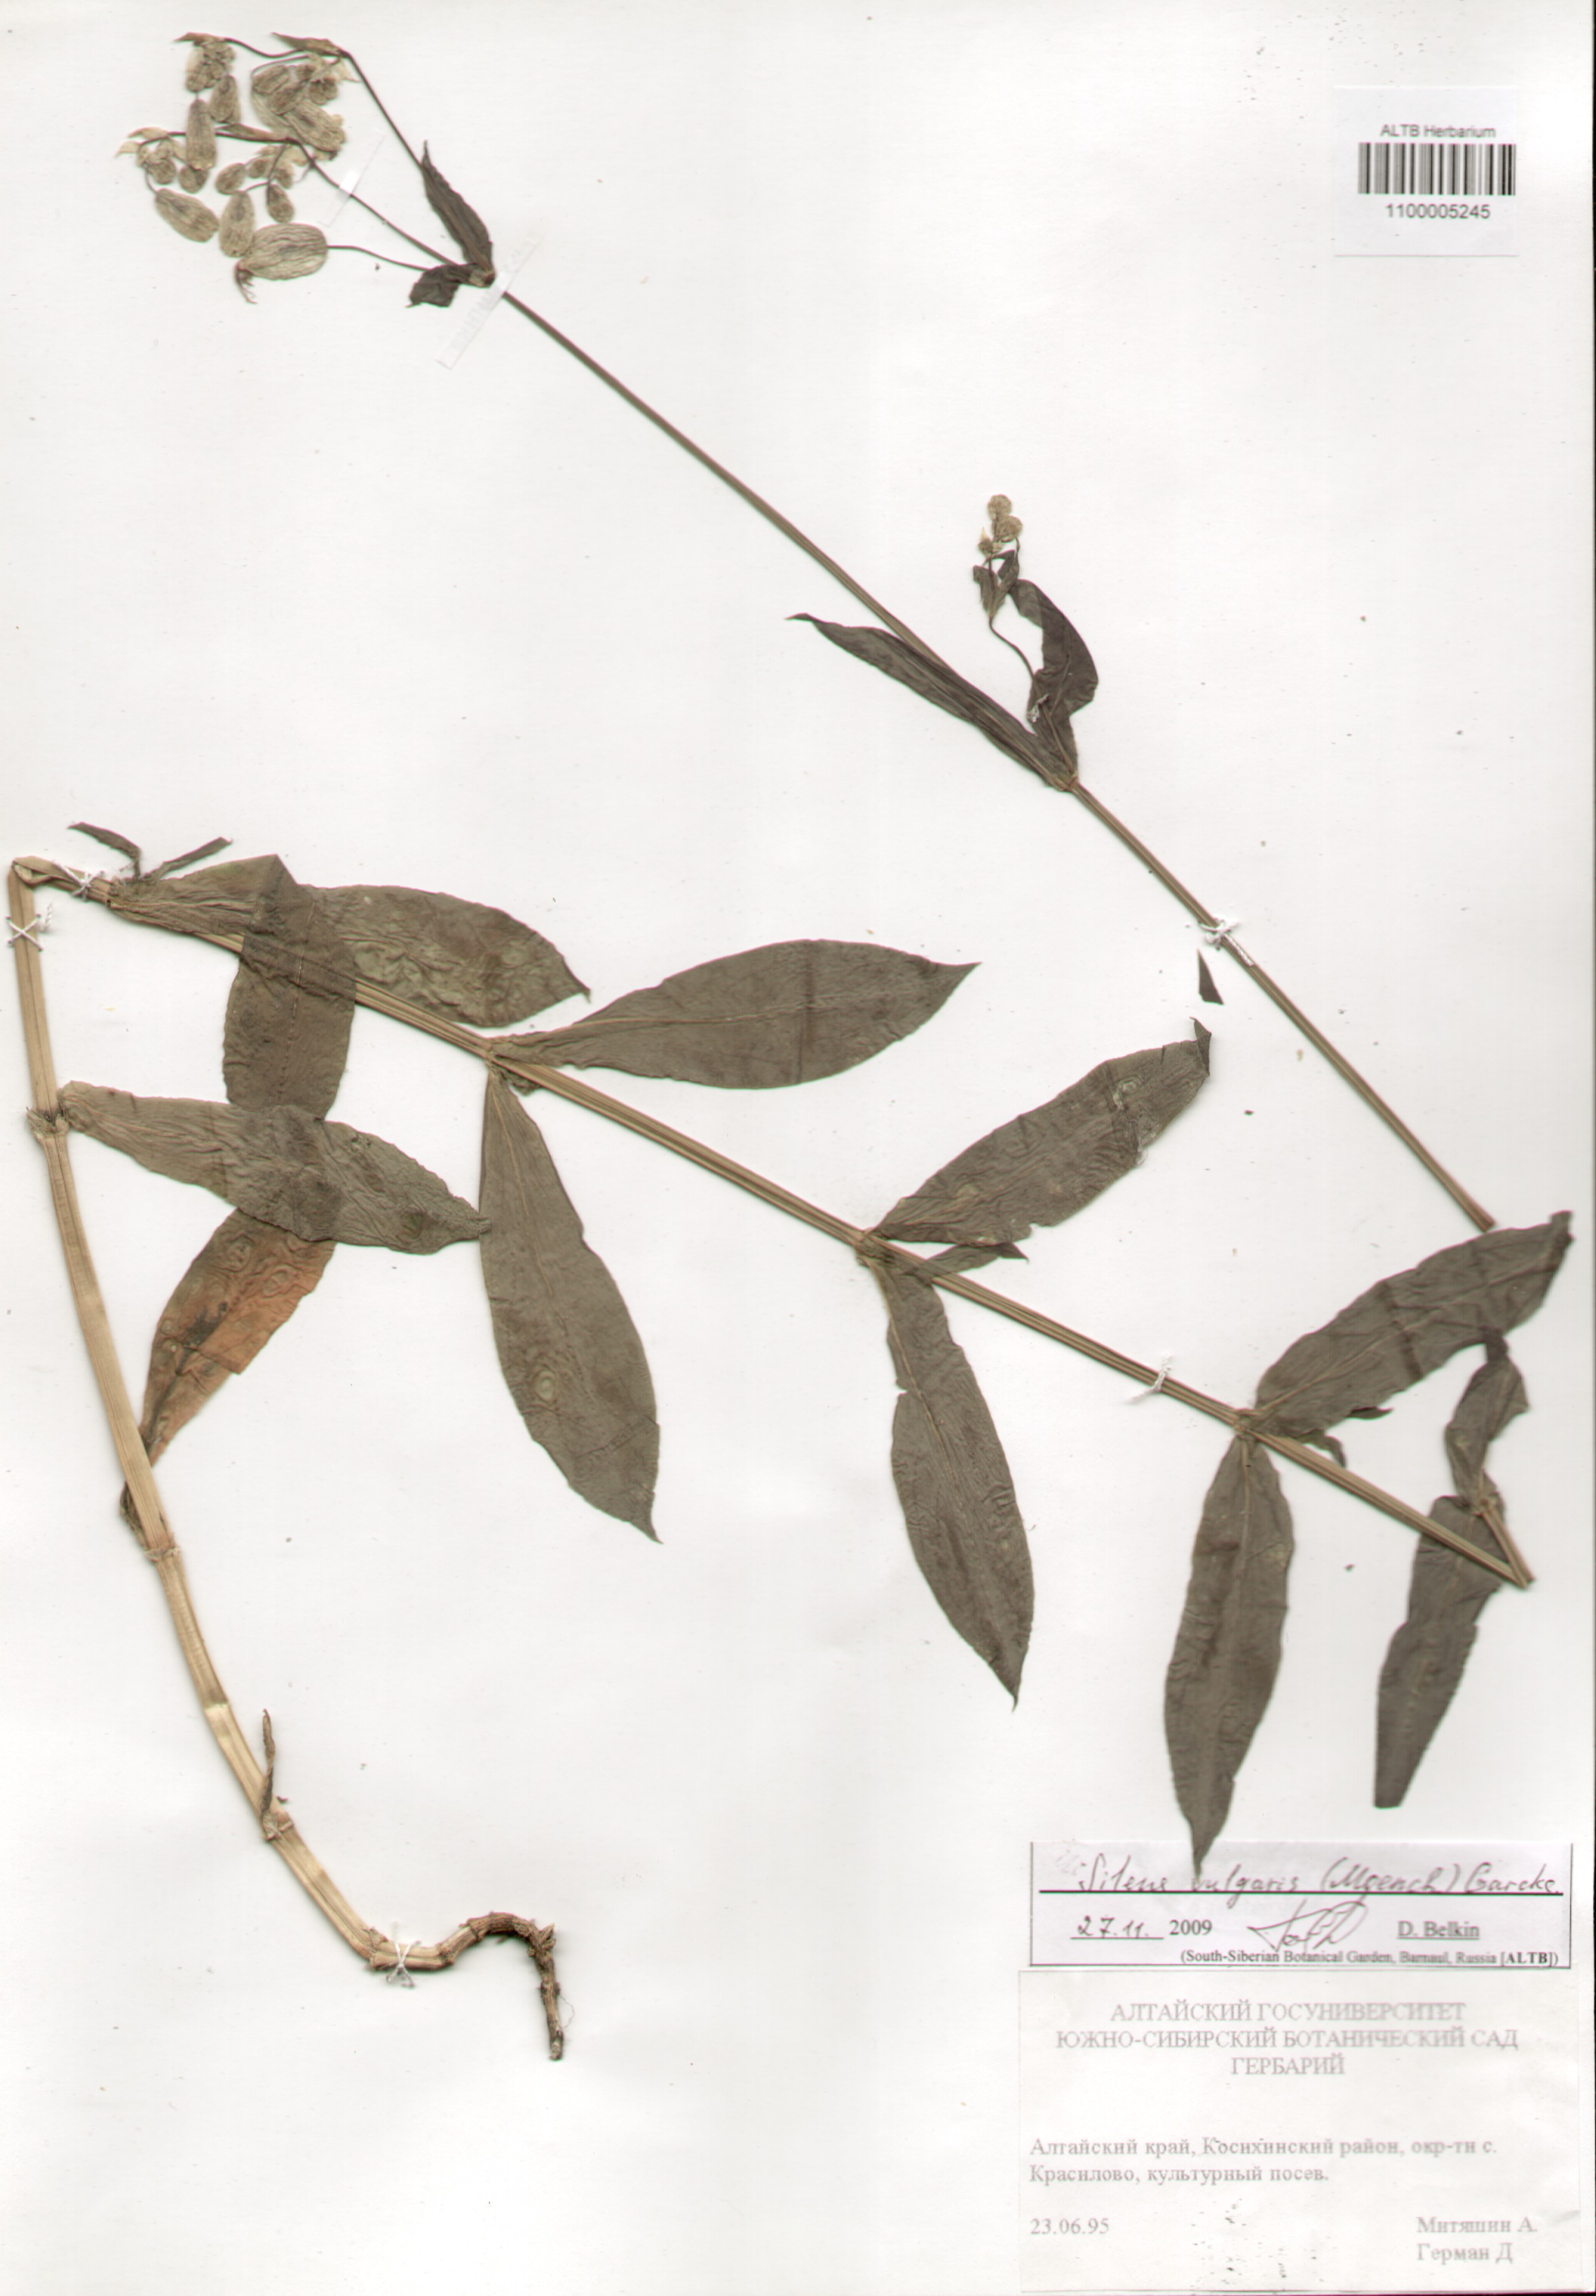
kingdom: Plantae
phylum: Tracheophyta
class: Magnoliopsida
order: Caryophyllales
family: Caryophyllaceae
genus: Silene
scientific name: Silene vulgaris
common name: Bladder campion
